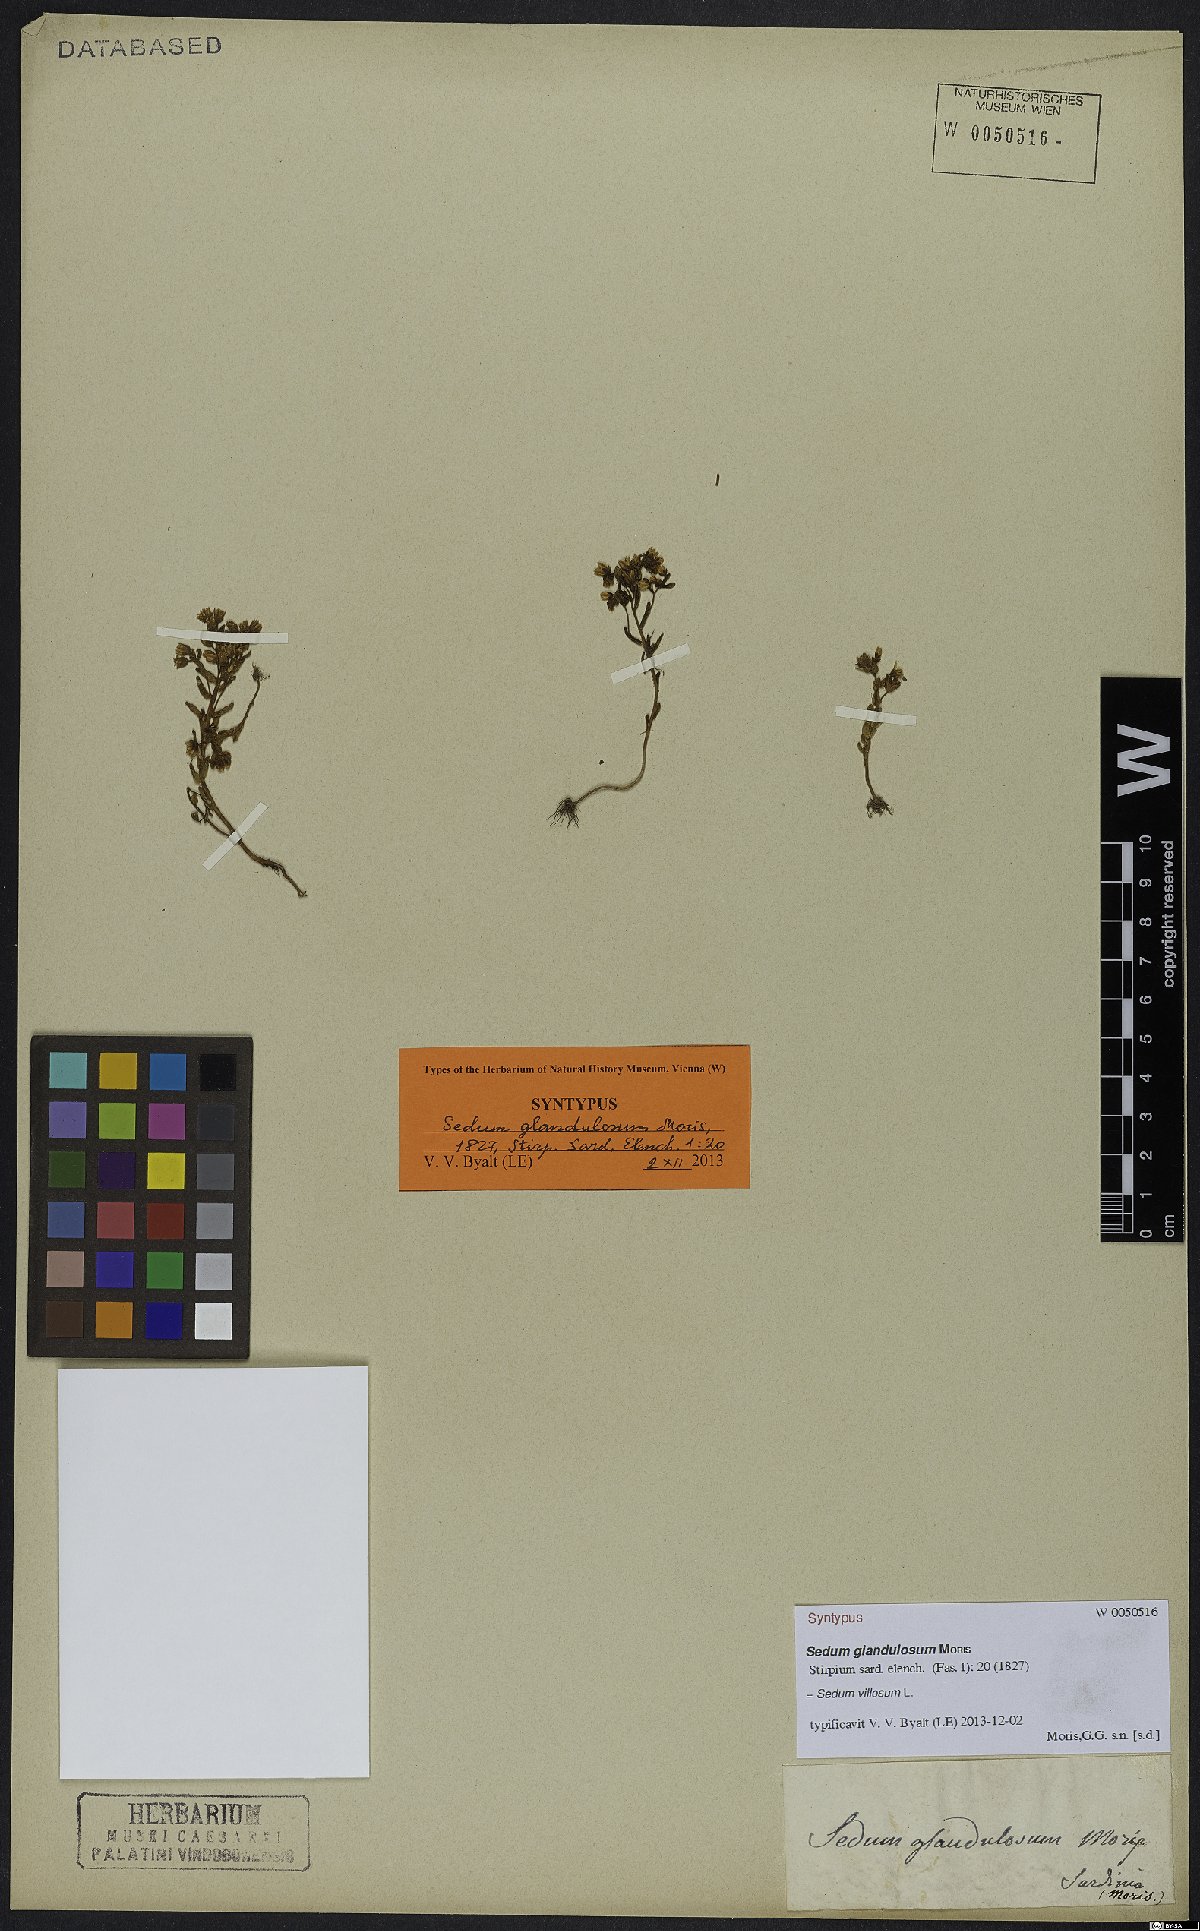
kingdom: Plantae
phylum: Tracheophyta
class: Magnoliopsida
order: Saxifragales
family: Crassulaceae
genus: Sedum
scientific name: Sedum villosum
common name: Hairy stonecrop
